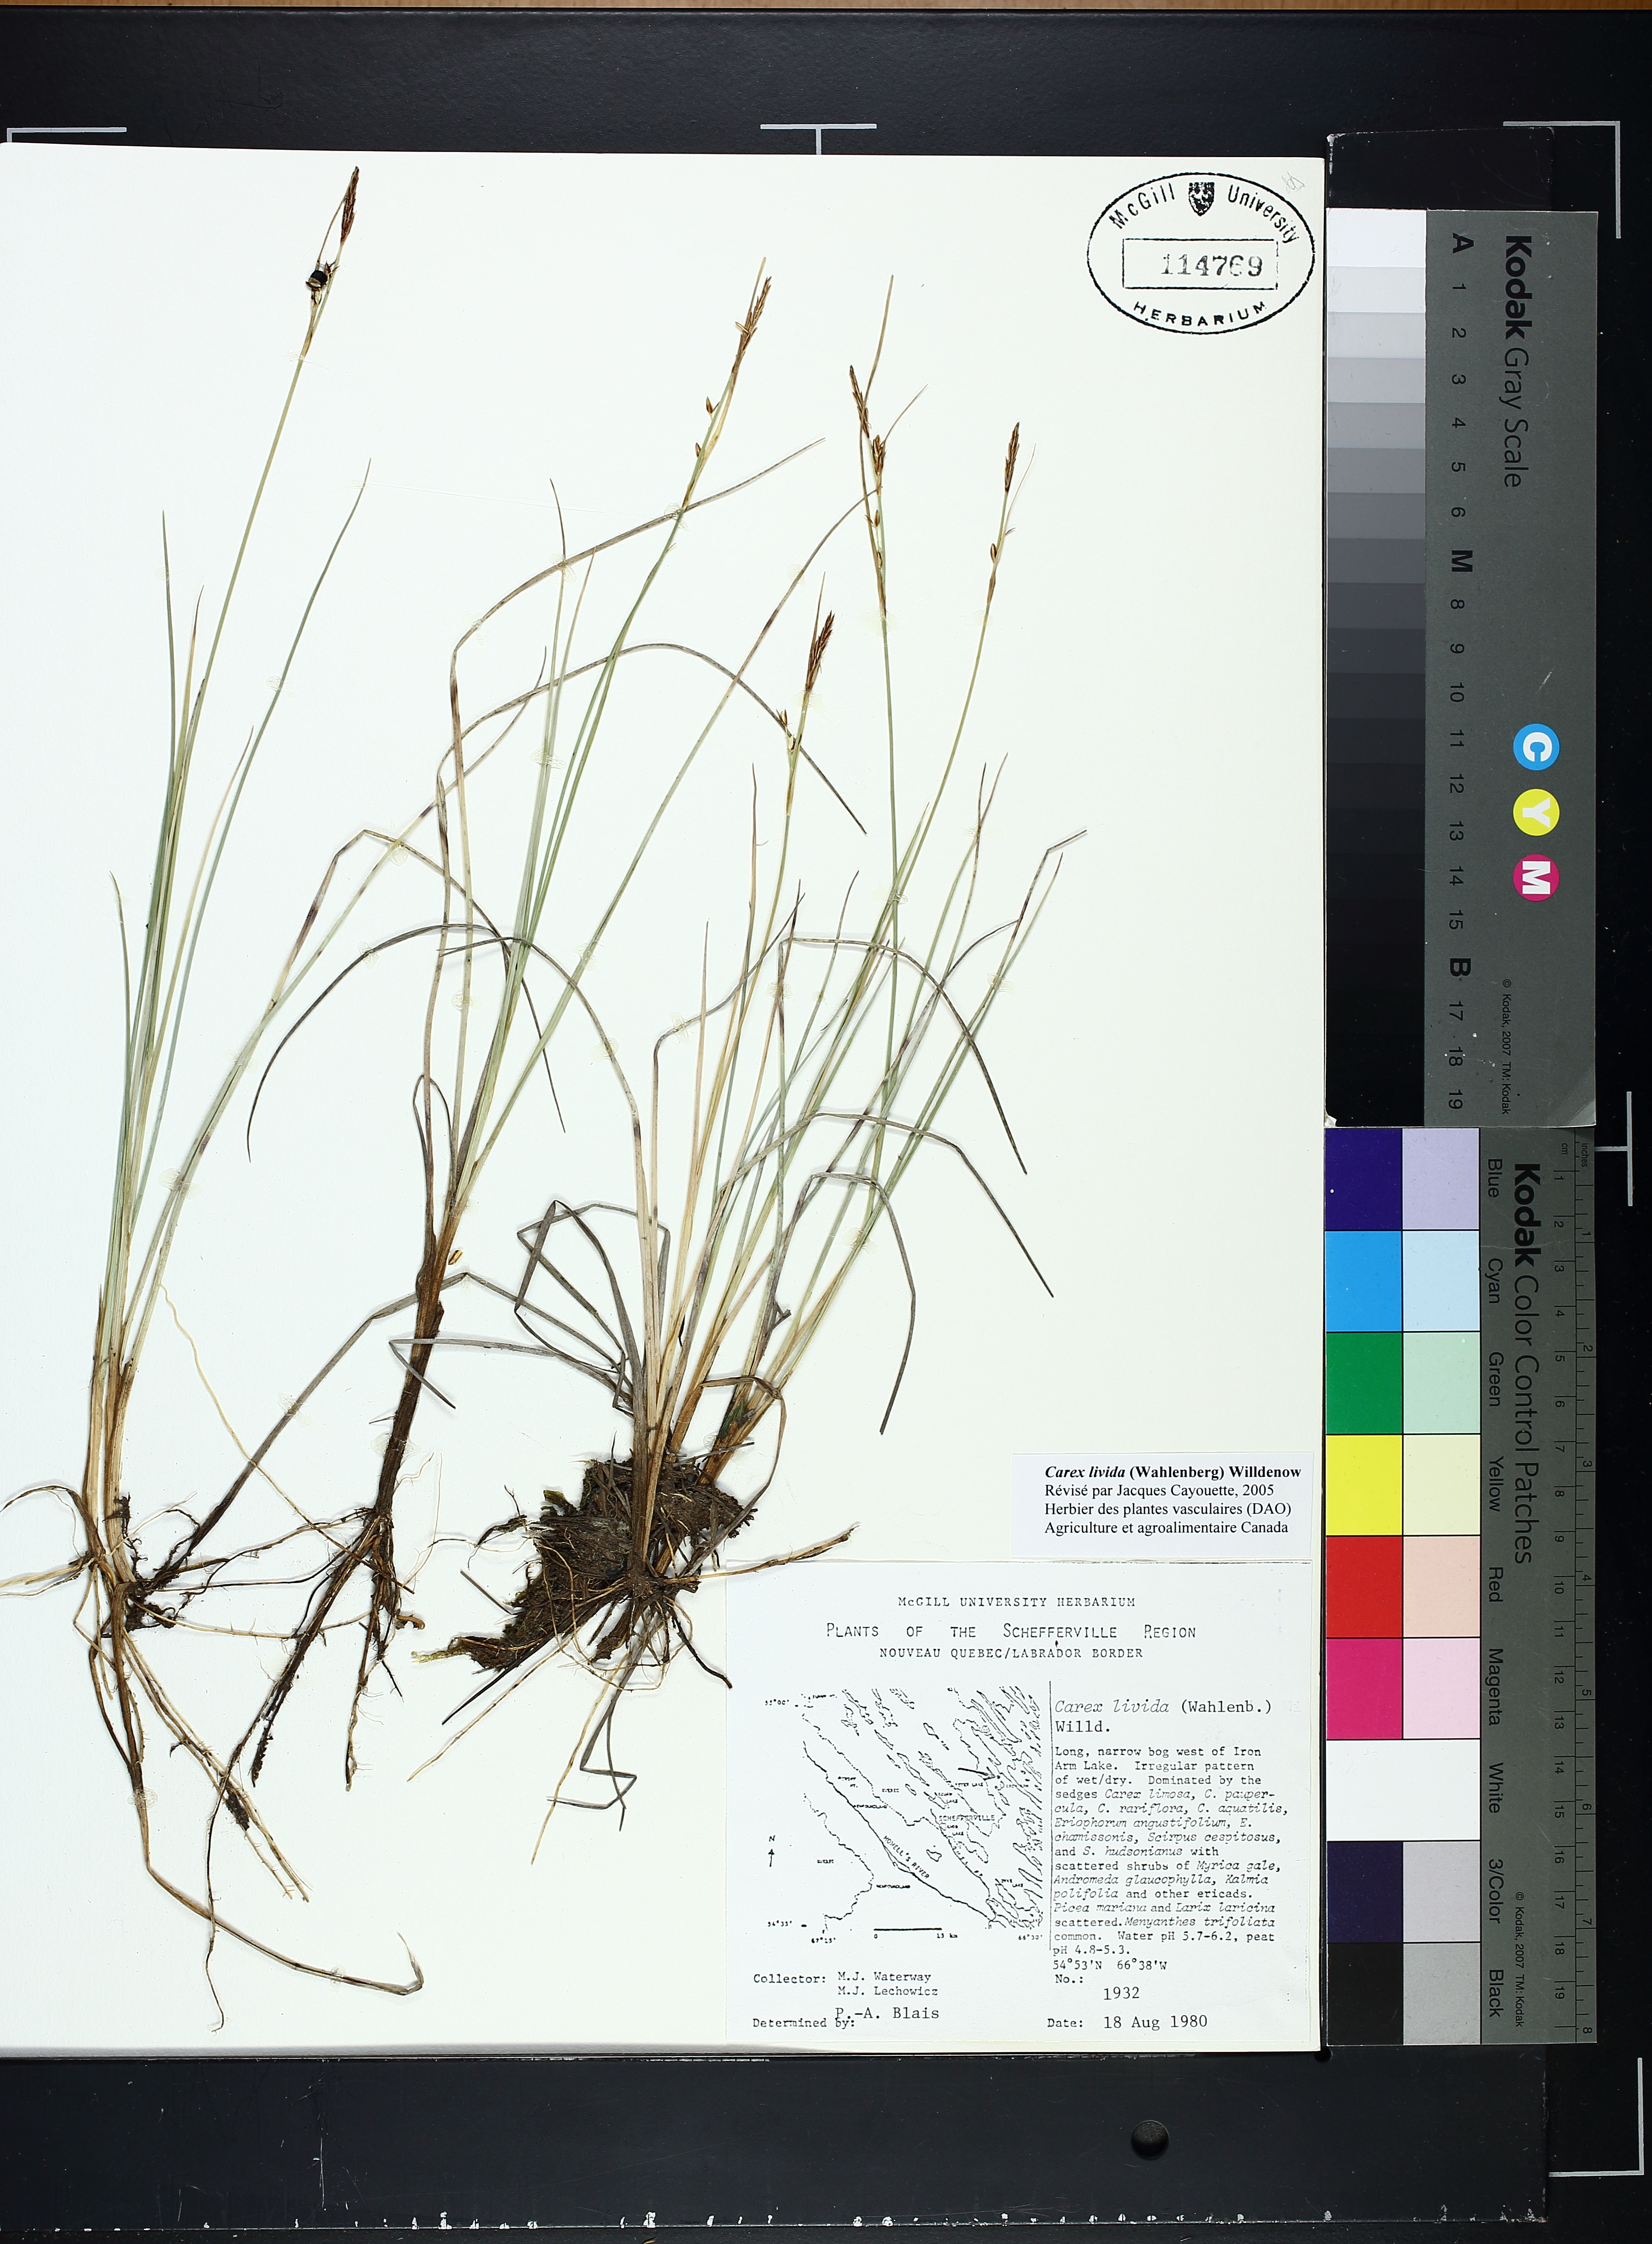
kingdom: Plantae
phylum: Tracheophyta
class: Liliopsida
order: Poales
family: Cyperaceae
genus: Carex
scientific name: Carex livida
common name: Livid sedge
